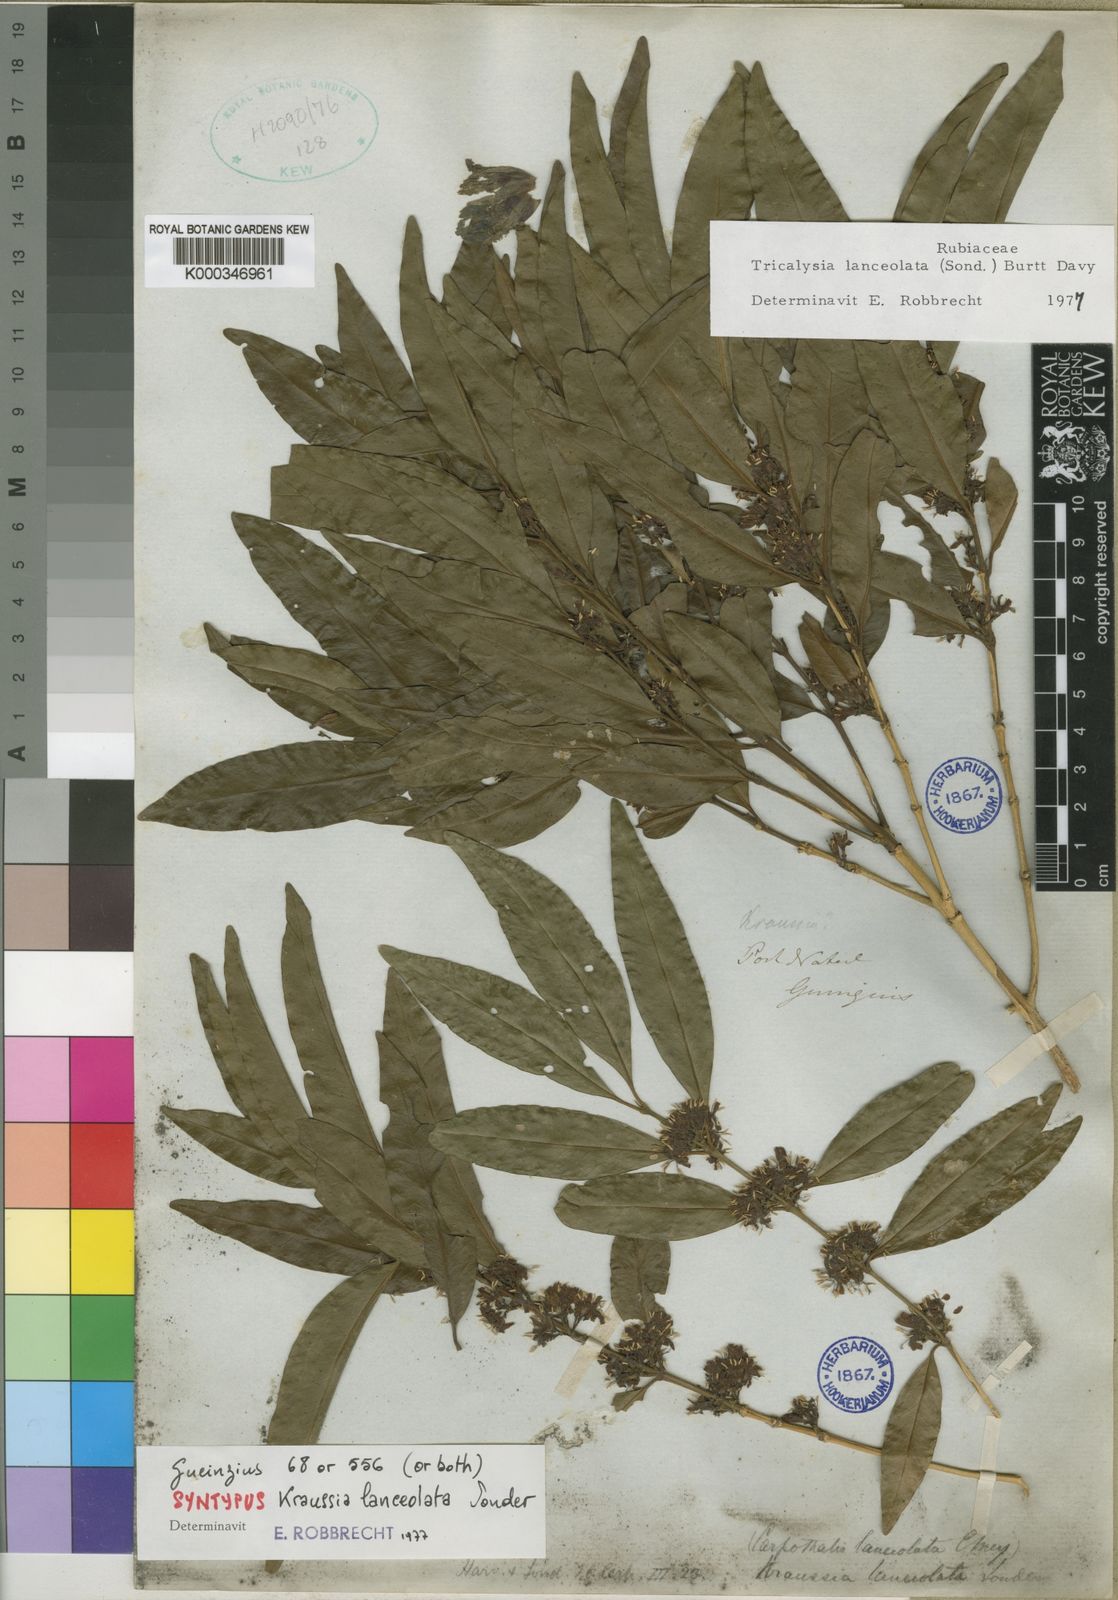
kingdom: Plantae
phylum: Tracheophyta
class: Magnoliopsida
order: Gentianales
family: Rubiaceae
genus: Empogona
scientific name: Empogona lanceolata
